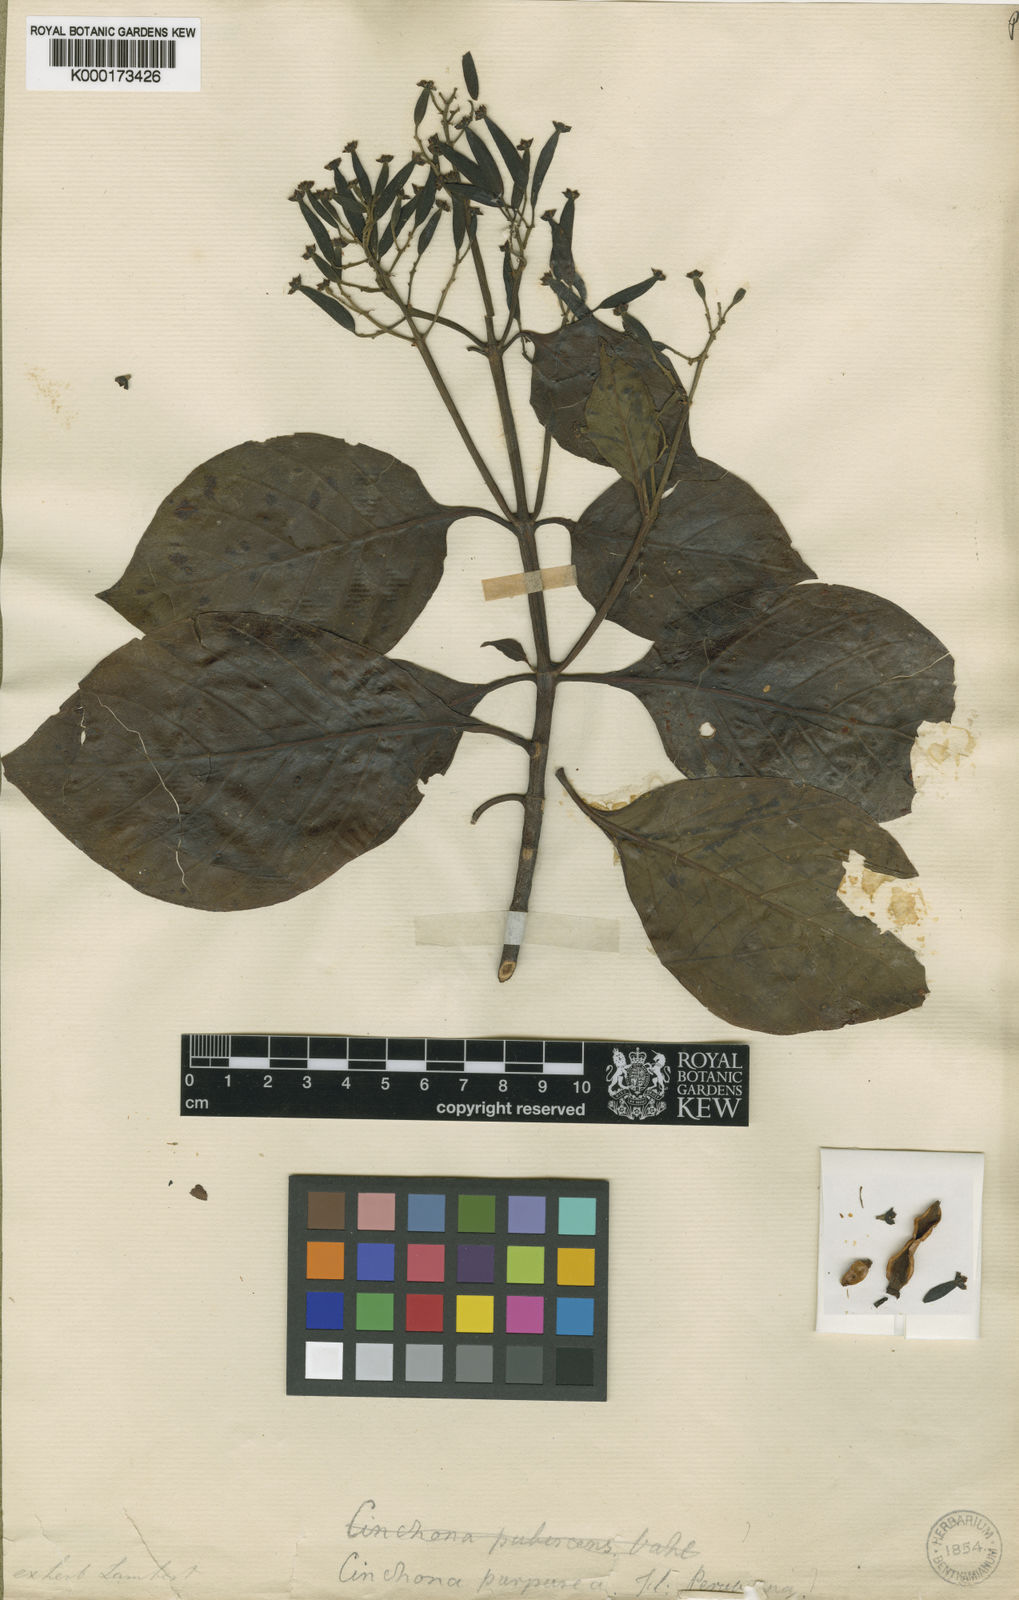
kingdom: Plantae
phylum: Tracheophyta
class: Magnoliopsida
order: Gentianales
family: Rubiaceae
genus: Cinchona
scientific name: Cinchona pubescens
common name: Quinine
